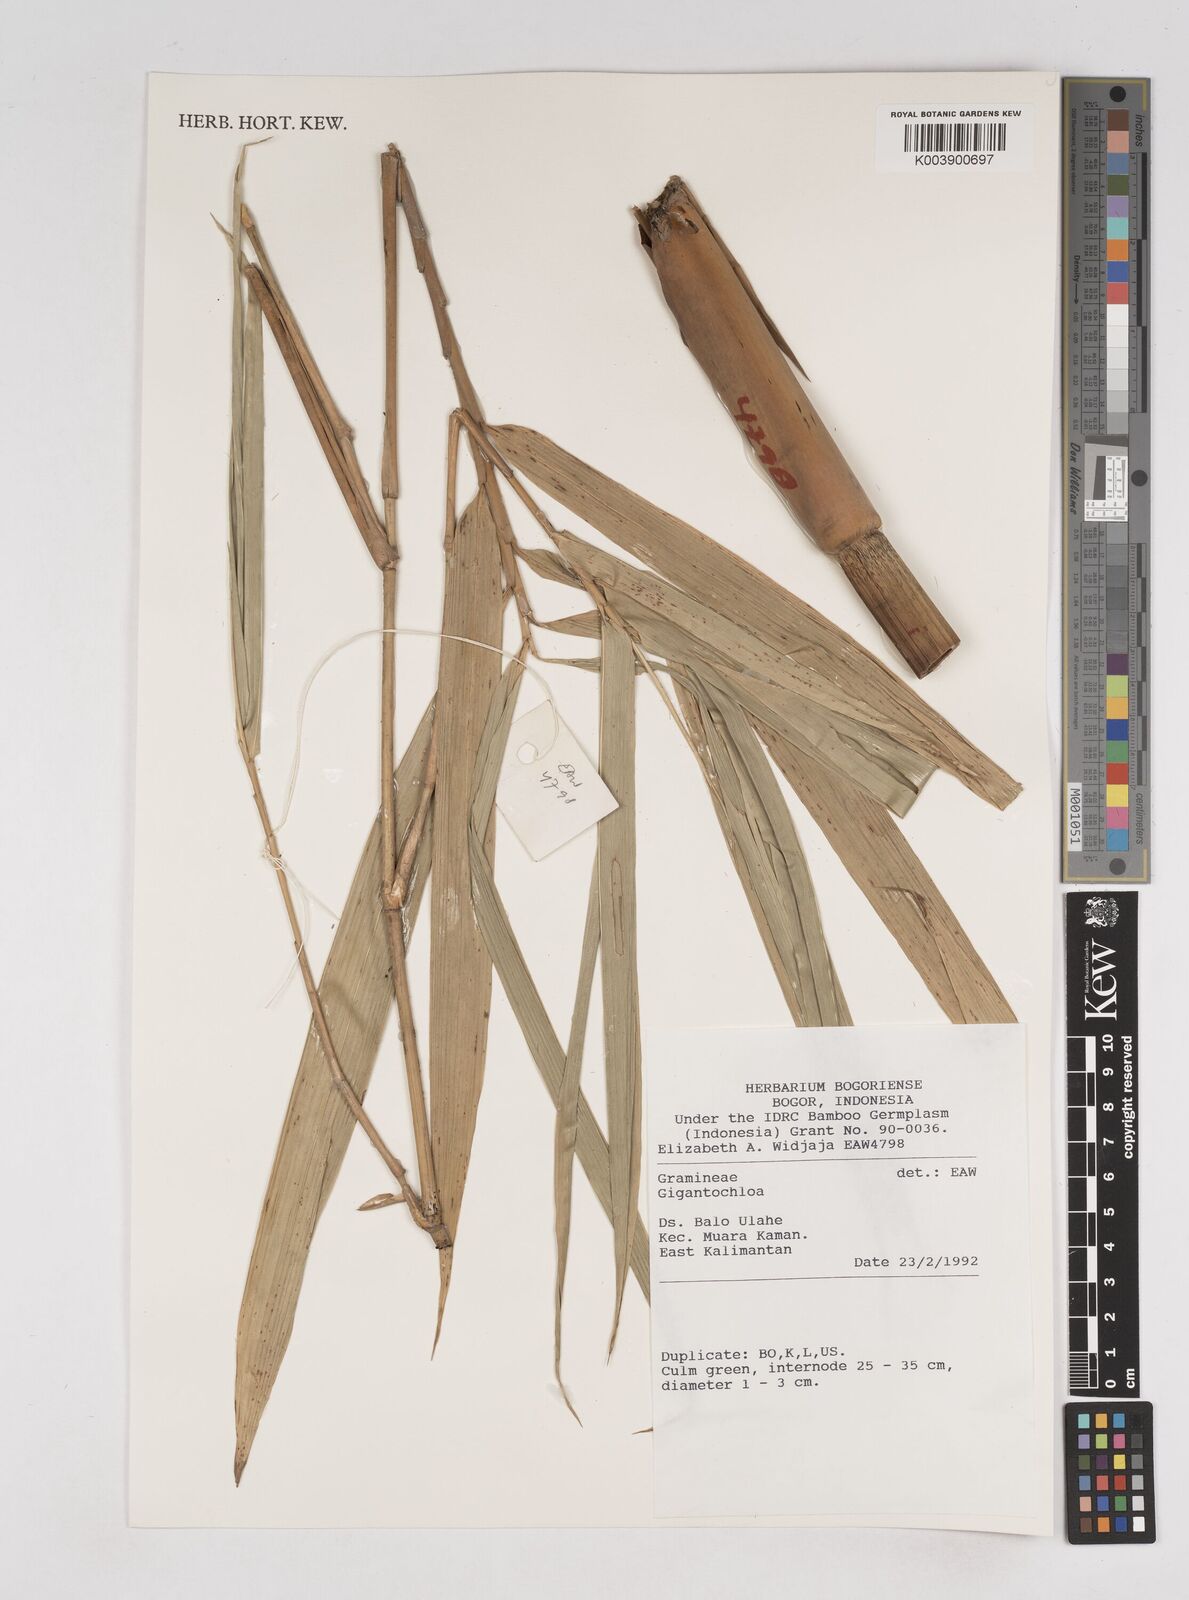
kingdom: Plantae
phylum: Tracheophyta
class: Liliopsida
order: Poales
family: Poaceae
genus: Gigantochloa
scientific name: Gigantochloa
